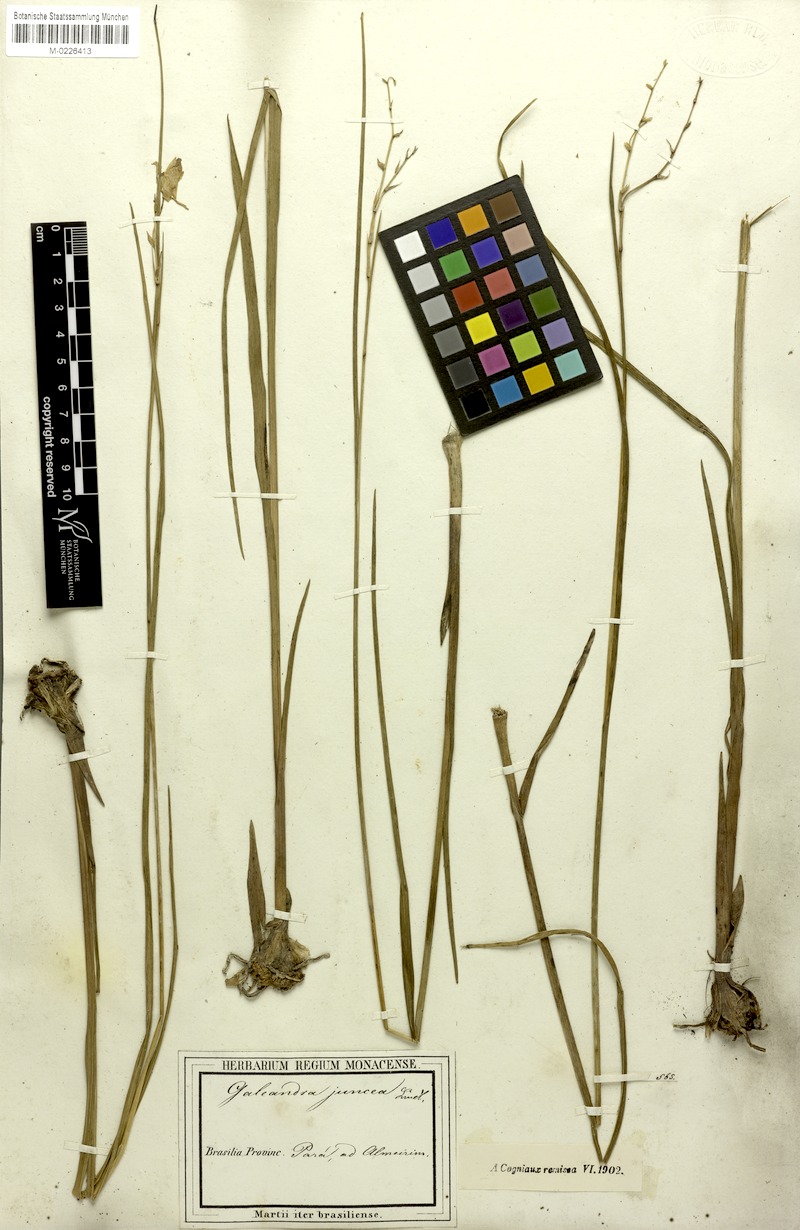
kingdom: Plantae
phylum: Tracheophyta
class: Liliopsida
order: Asparagales
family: Orchidaceae
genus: Galeandra
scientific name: Galeandra styllomisantha
